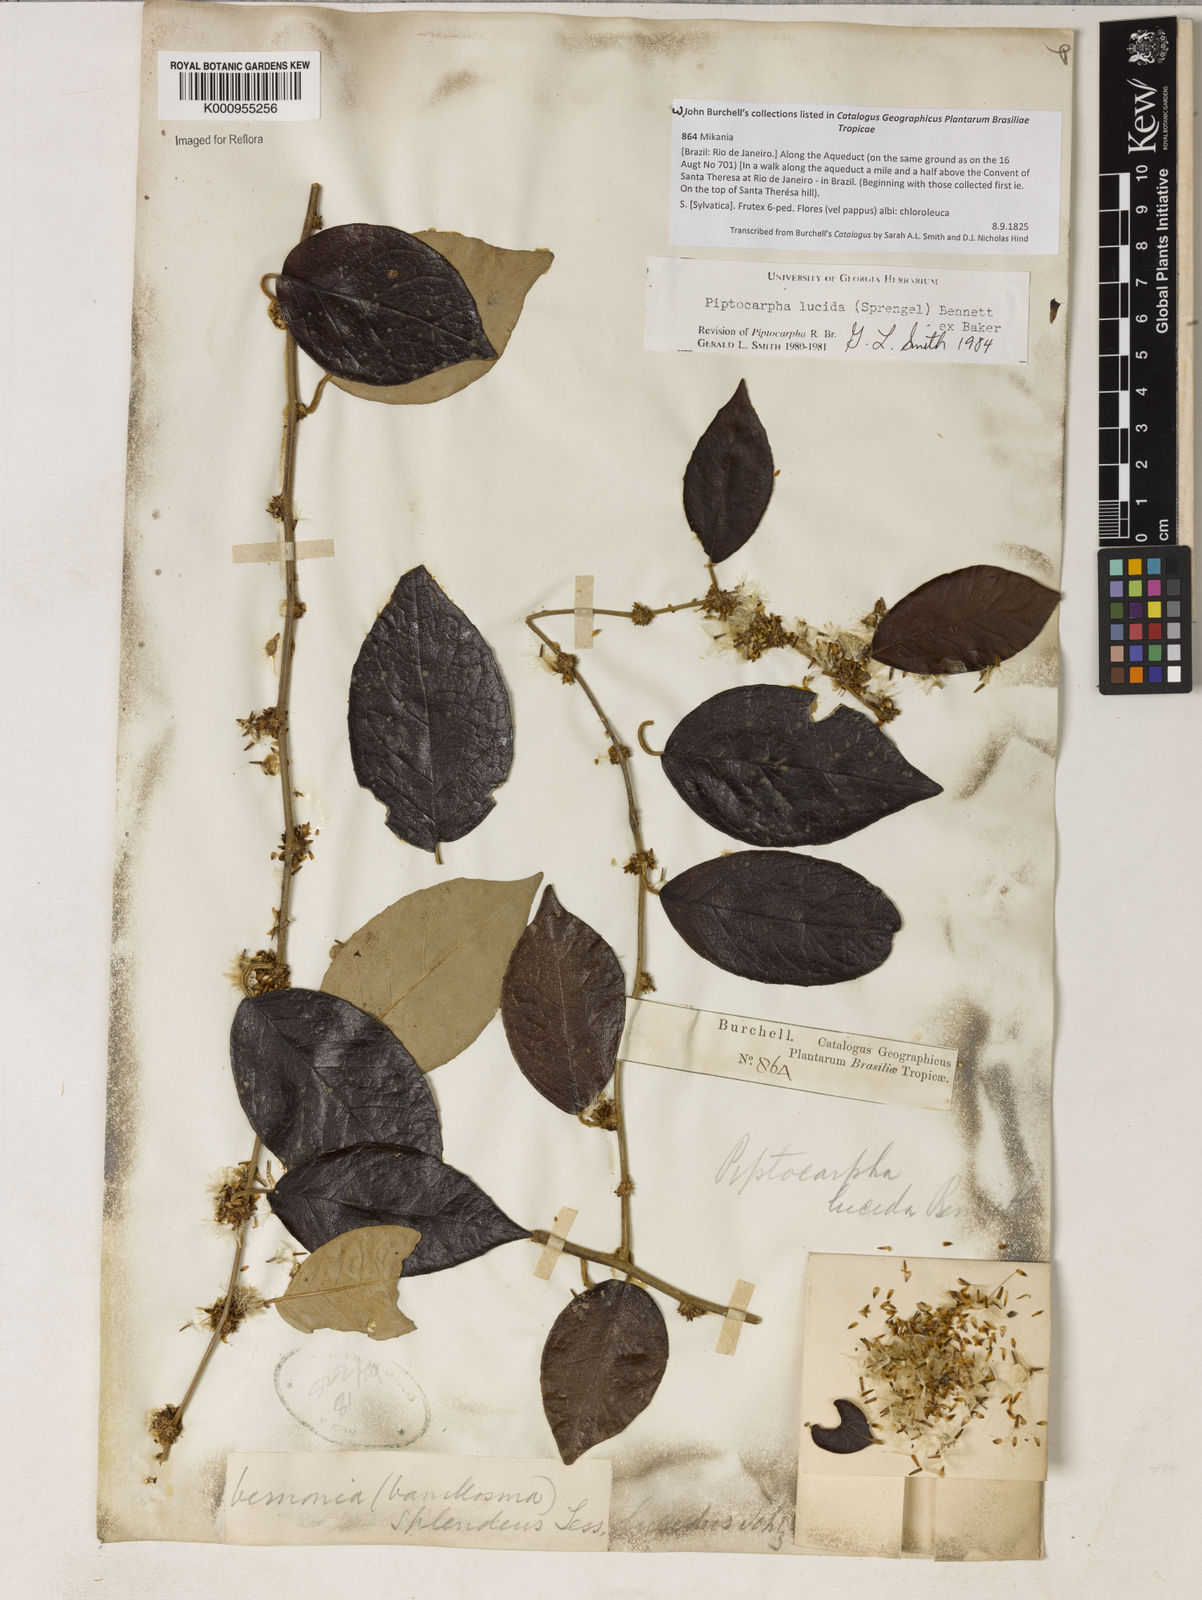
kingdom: Plantae
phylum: Tracheophyta
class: Magnoliopsida
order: Asterales
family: Asteraceae
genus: Piptocarpha
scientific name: Piptocarpha lucida
